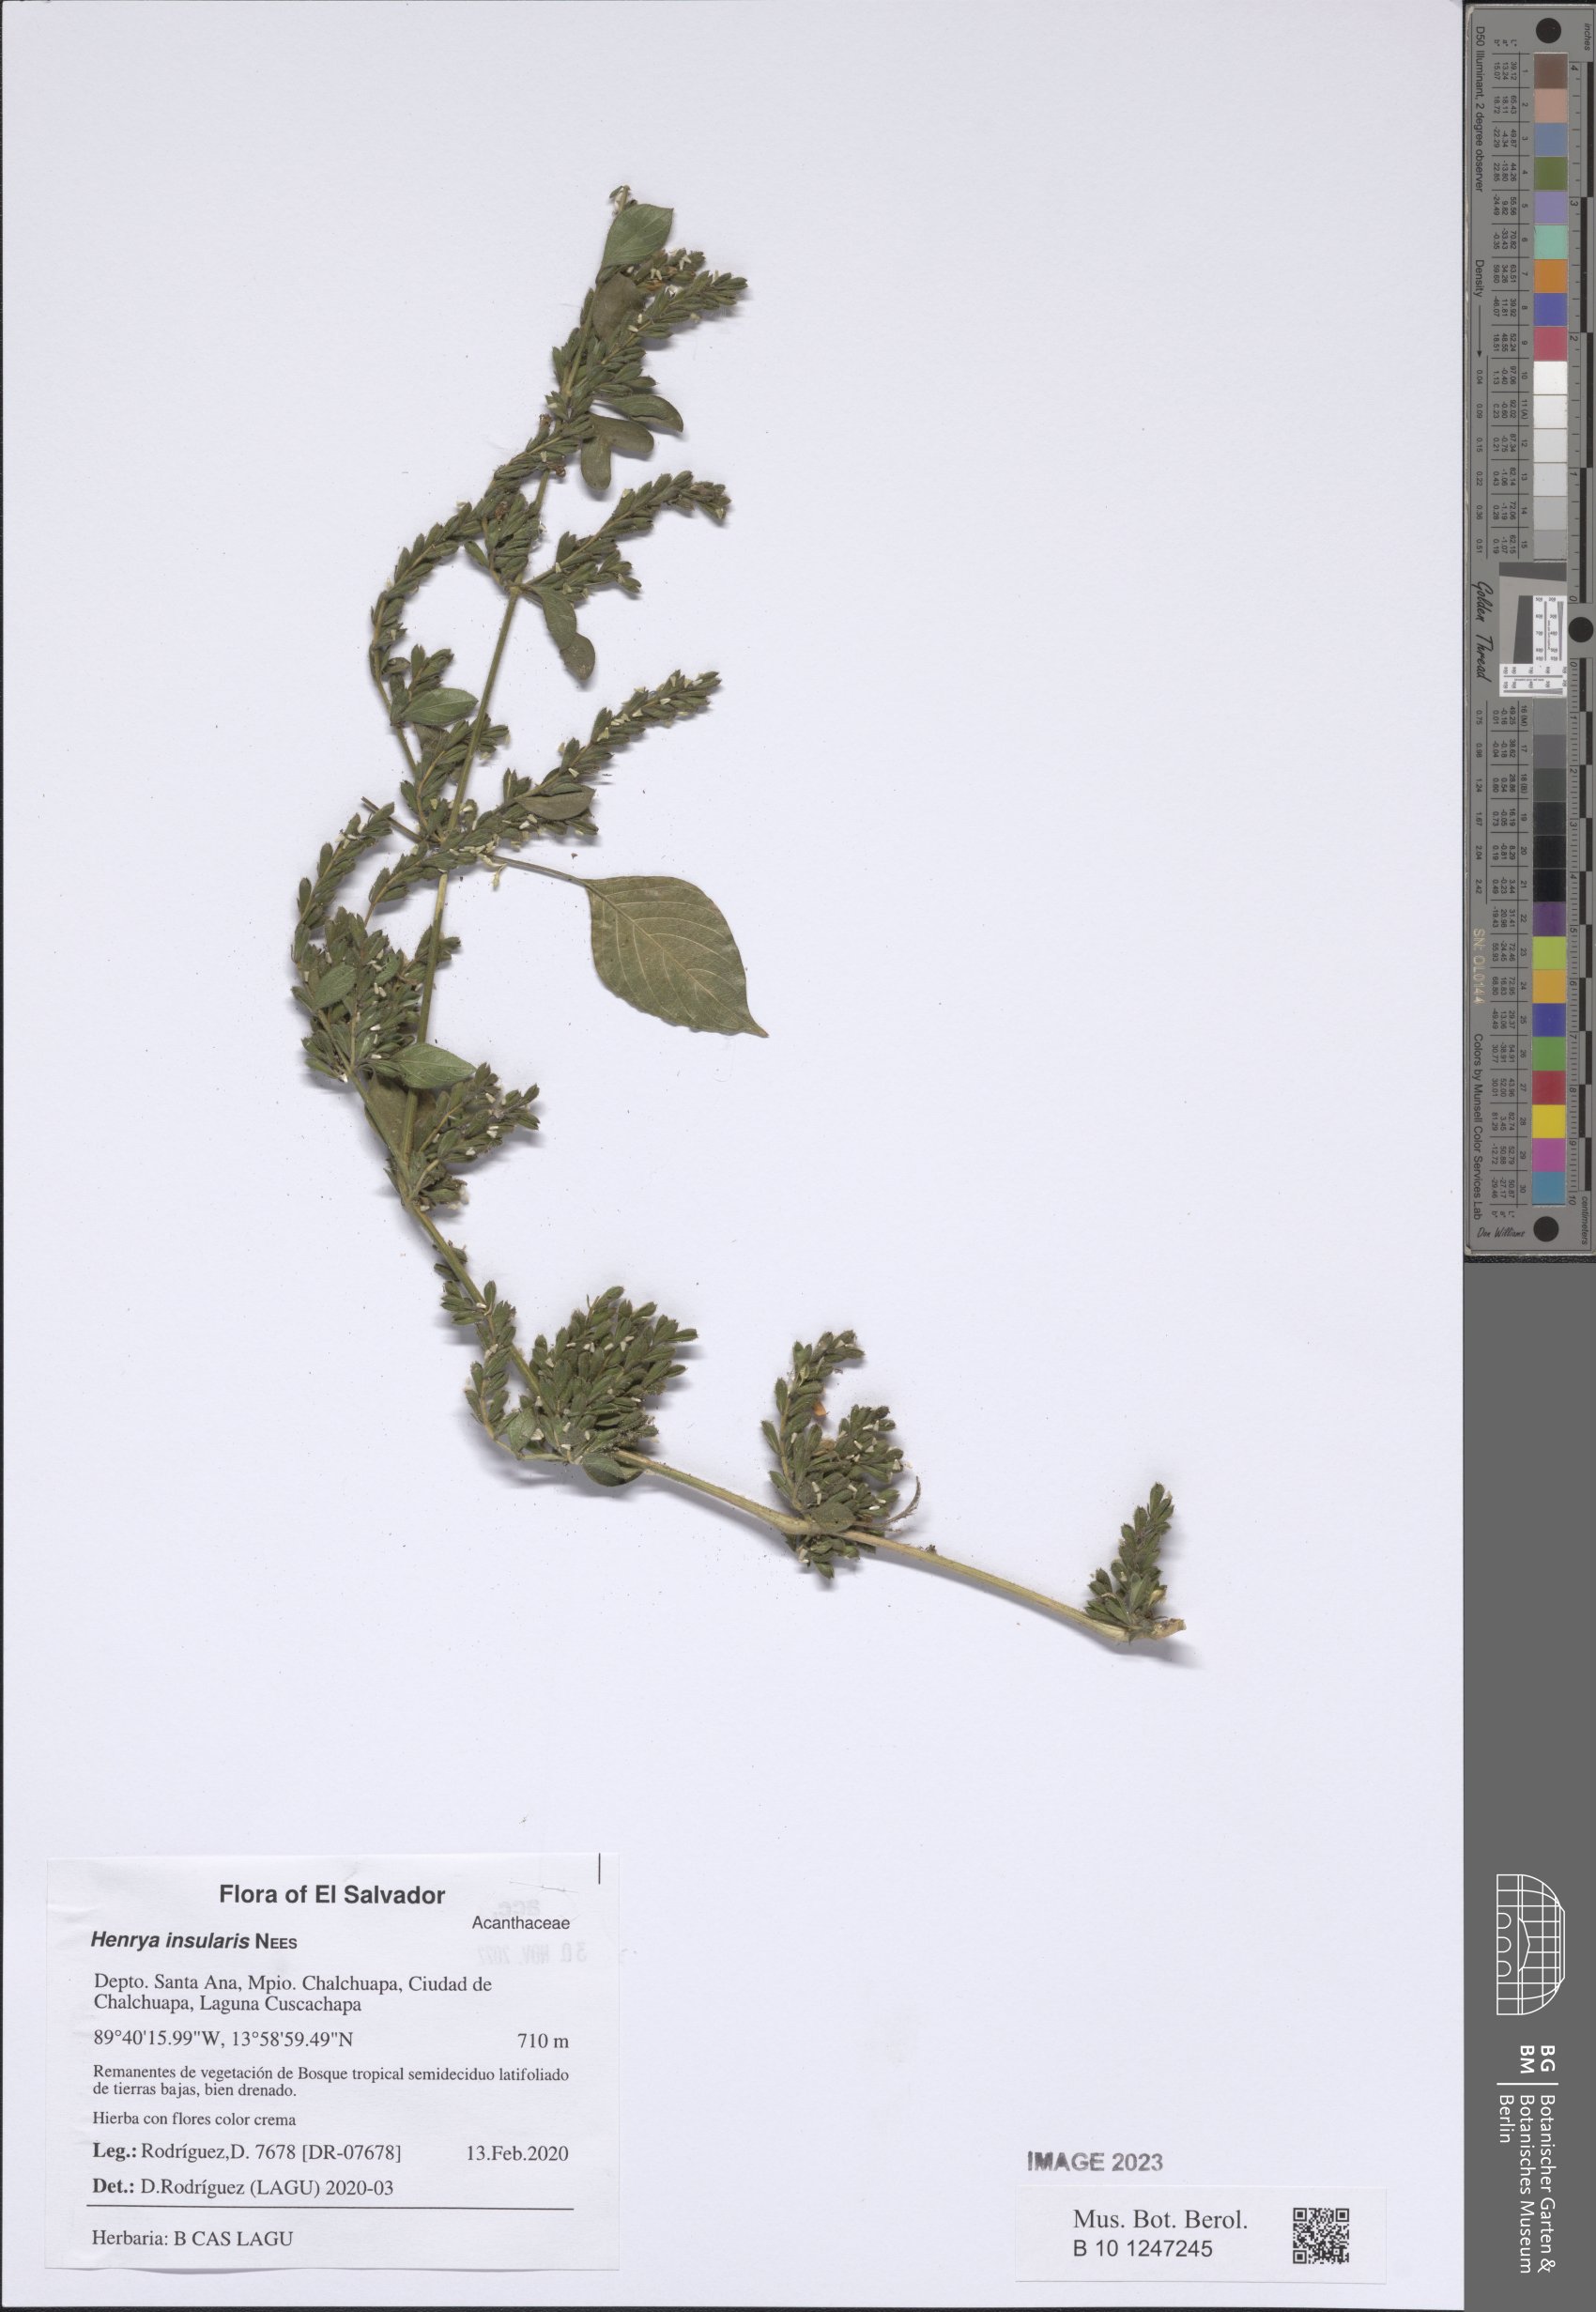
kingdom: Plantae
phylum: Tracheophyta
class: Magnoliopsida
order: Lamiales
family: Acanthaceae
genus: Henrya
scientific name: Henrya insularis
